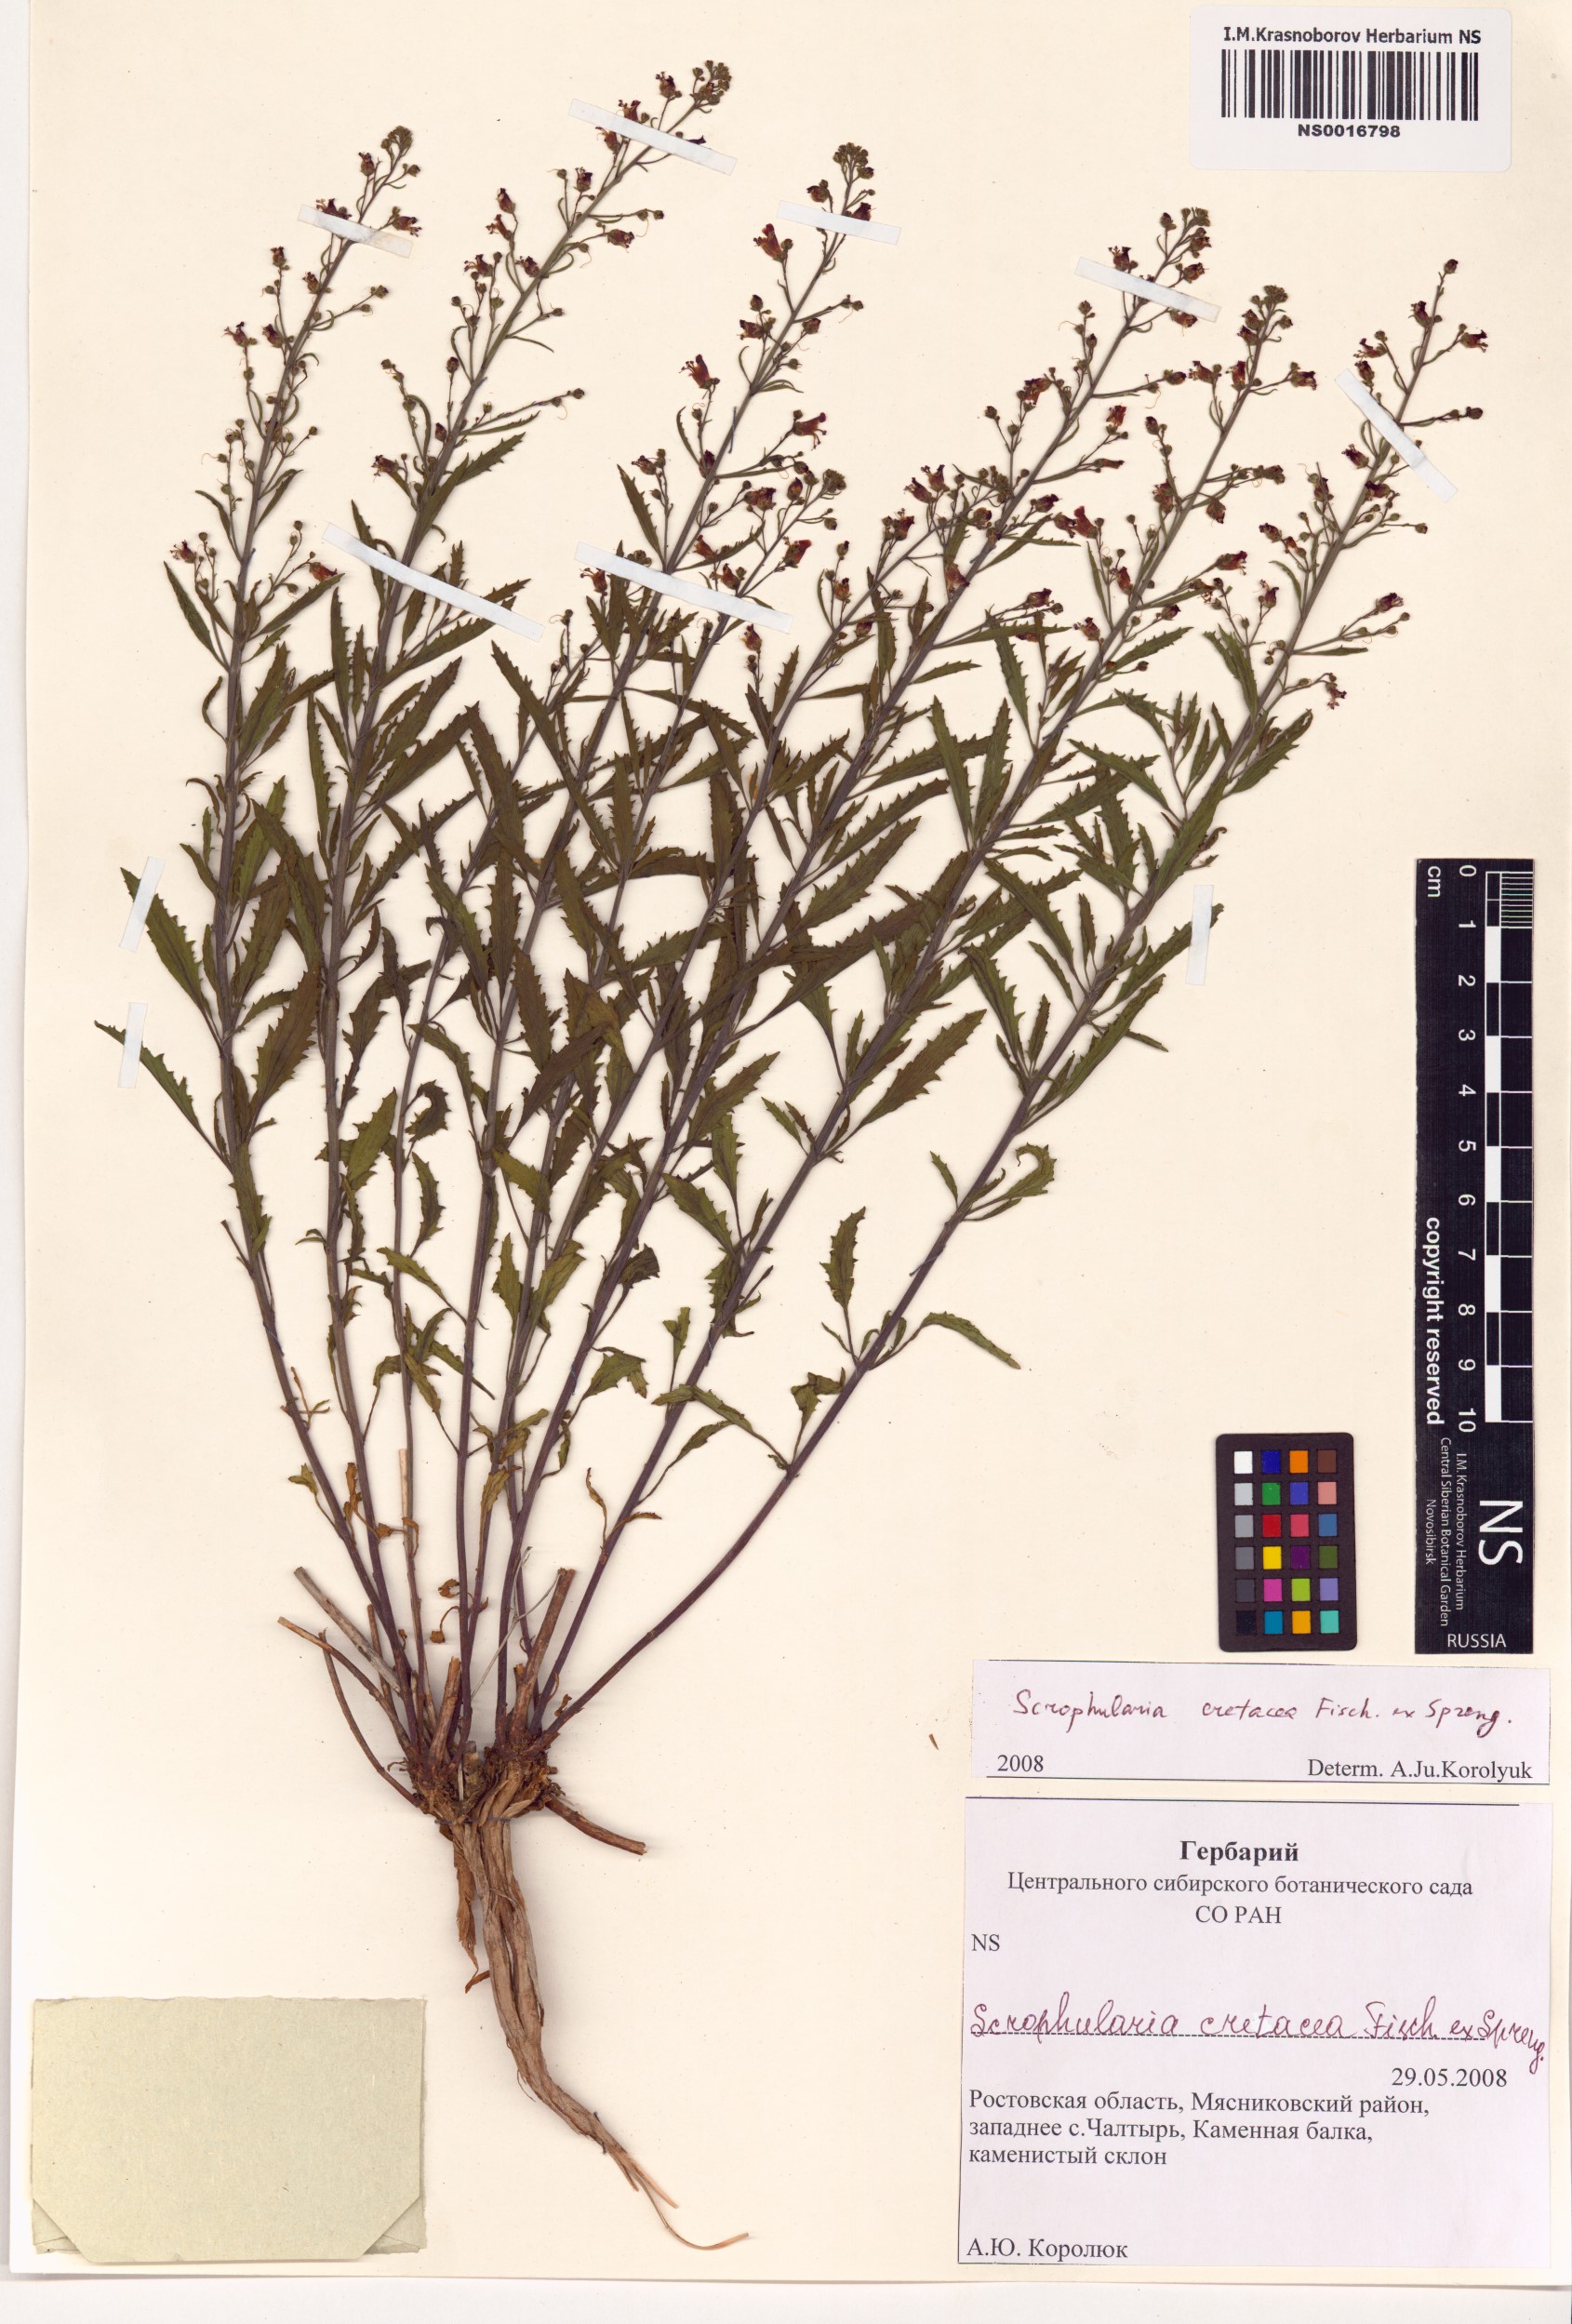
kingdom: Plantae
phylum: Tracheophyta
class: Magnoliopsida
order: Lamiales
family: Scrophulariaceae
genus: Scrophularia
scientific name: Scrophularia cretacea
